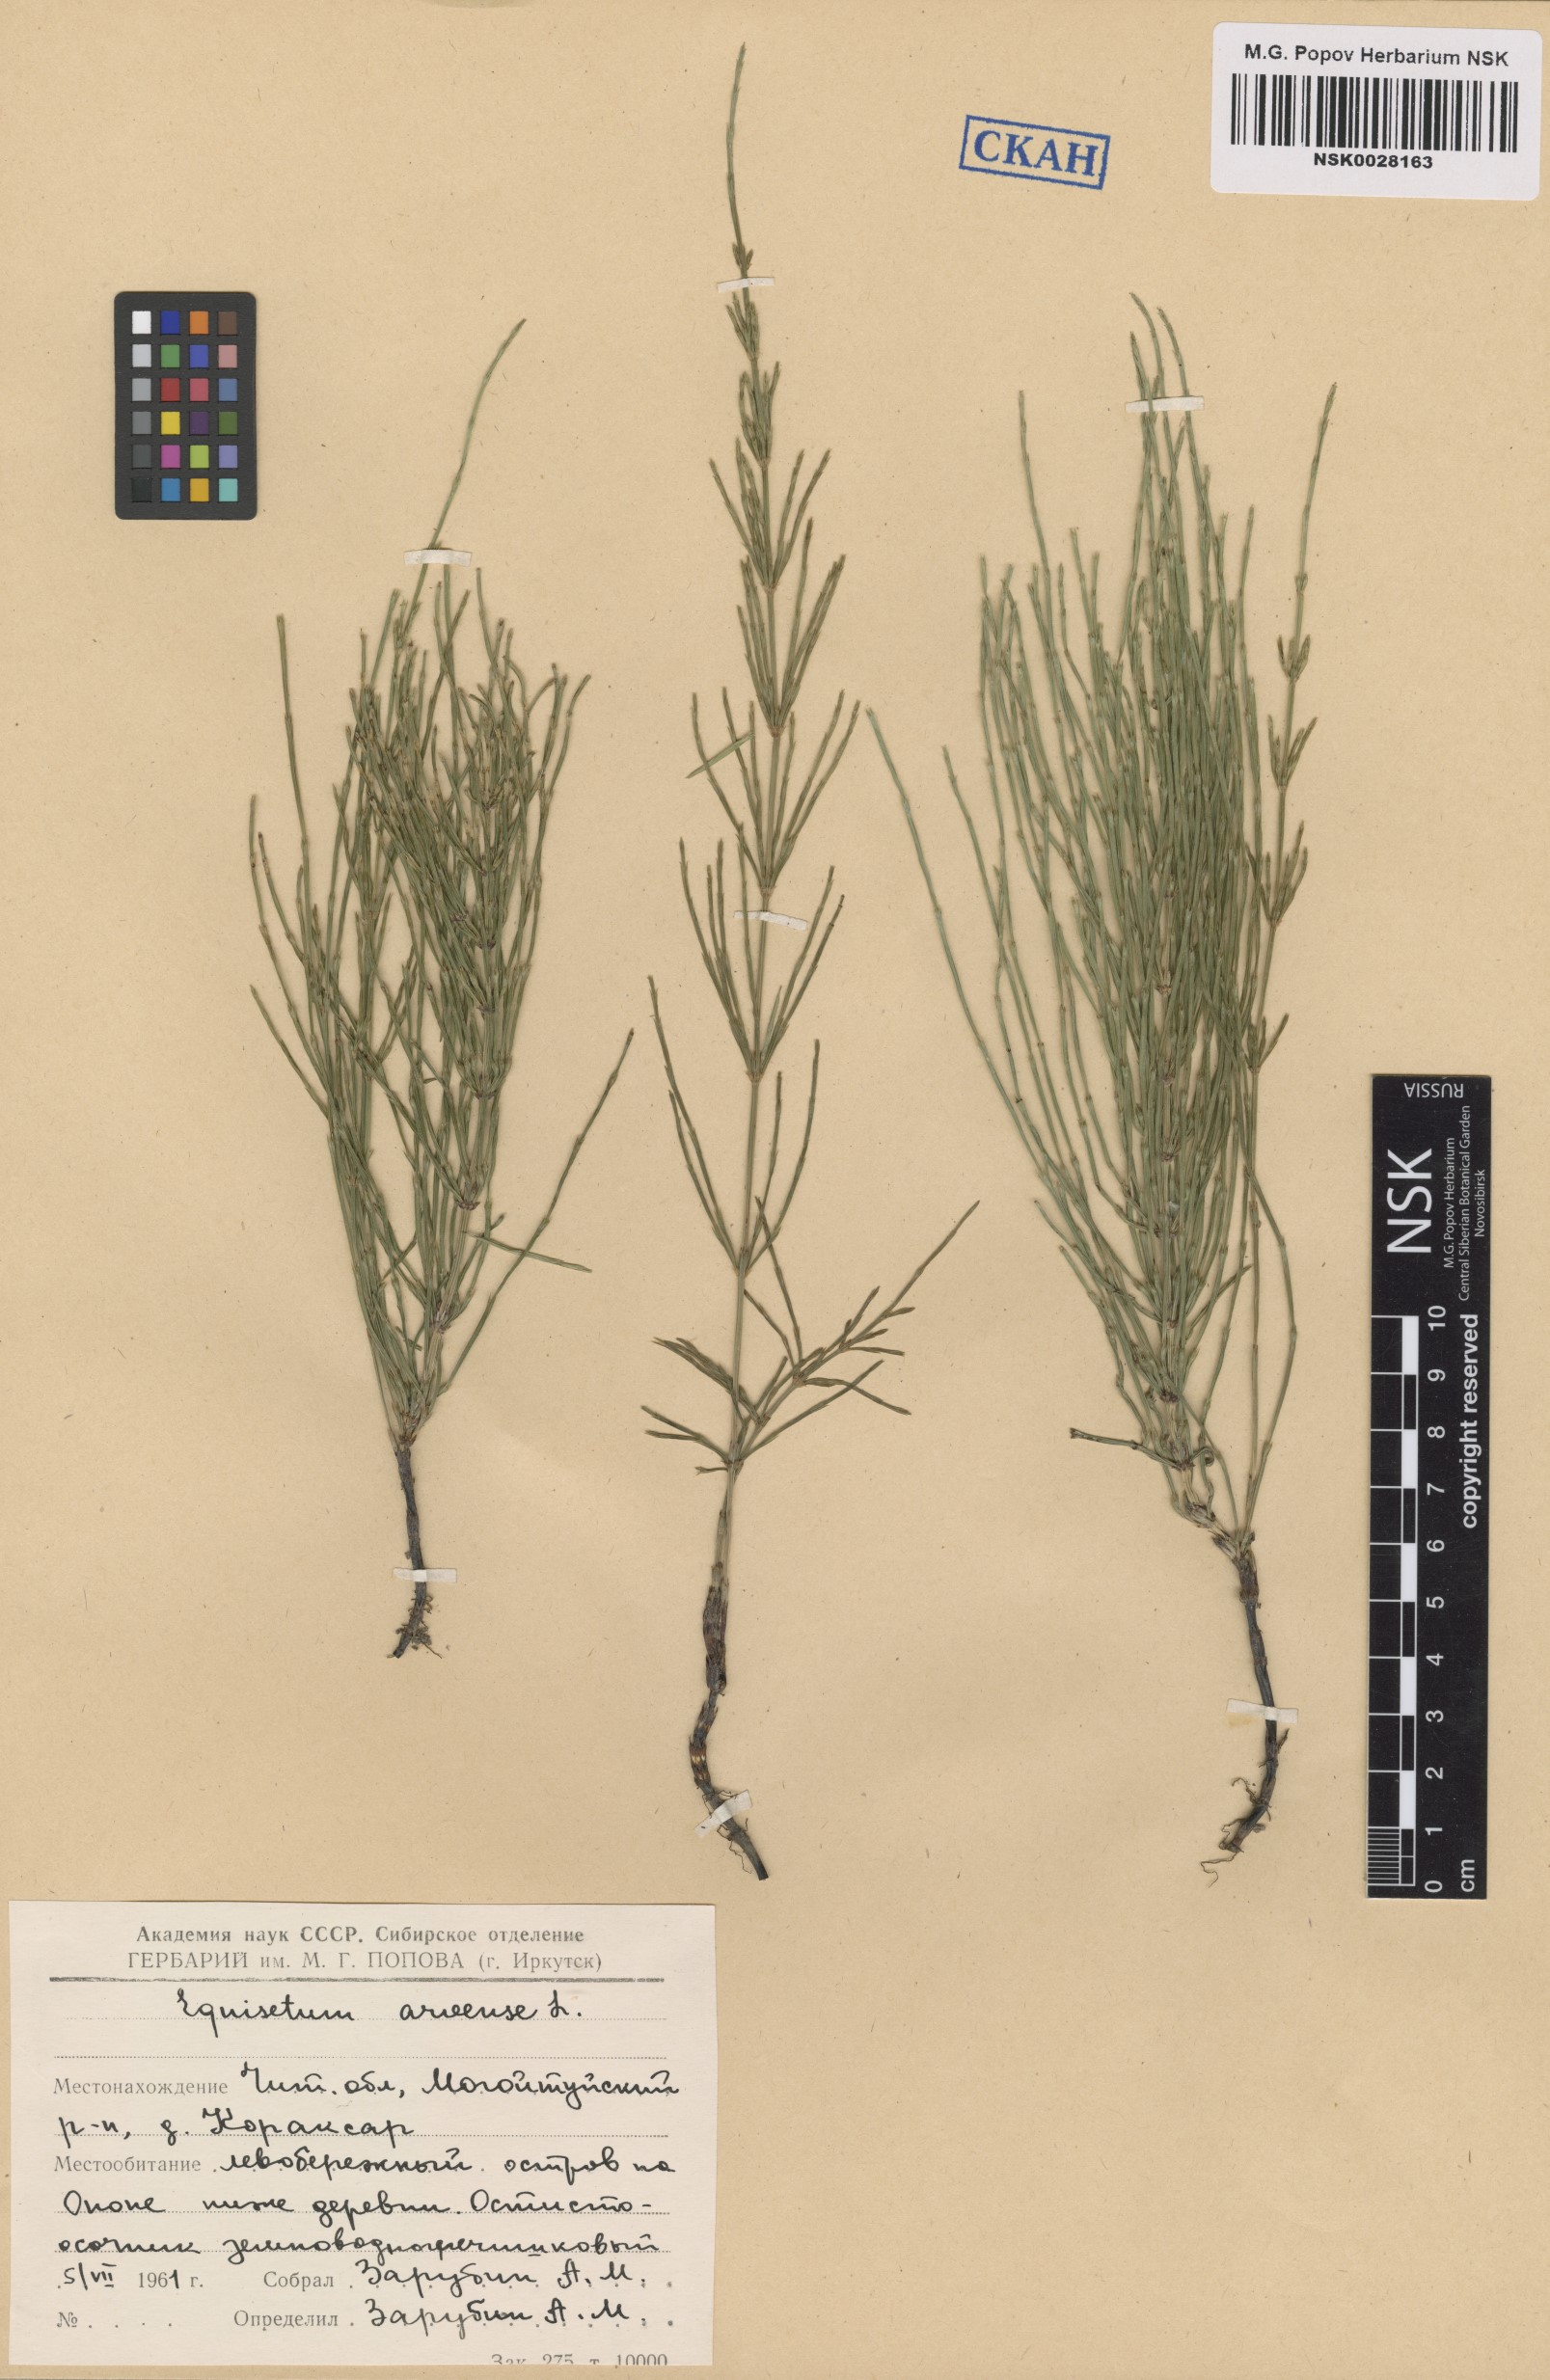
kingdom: Plantae
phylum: Tracheophyta
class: Polypodiopsida
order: Equisetales
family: Equisetaceae
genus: Equisetum
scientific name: Equisetum arvense
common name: Field horsetail
